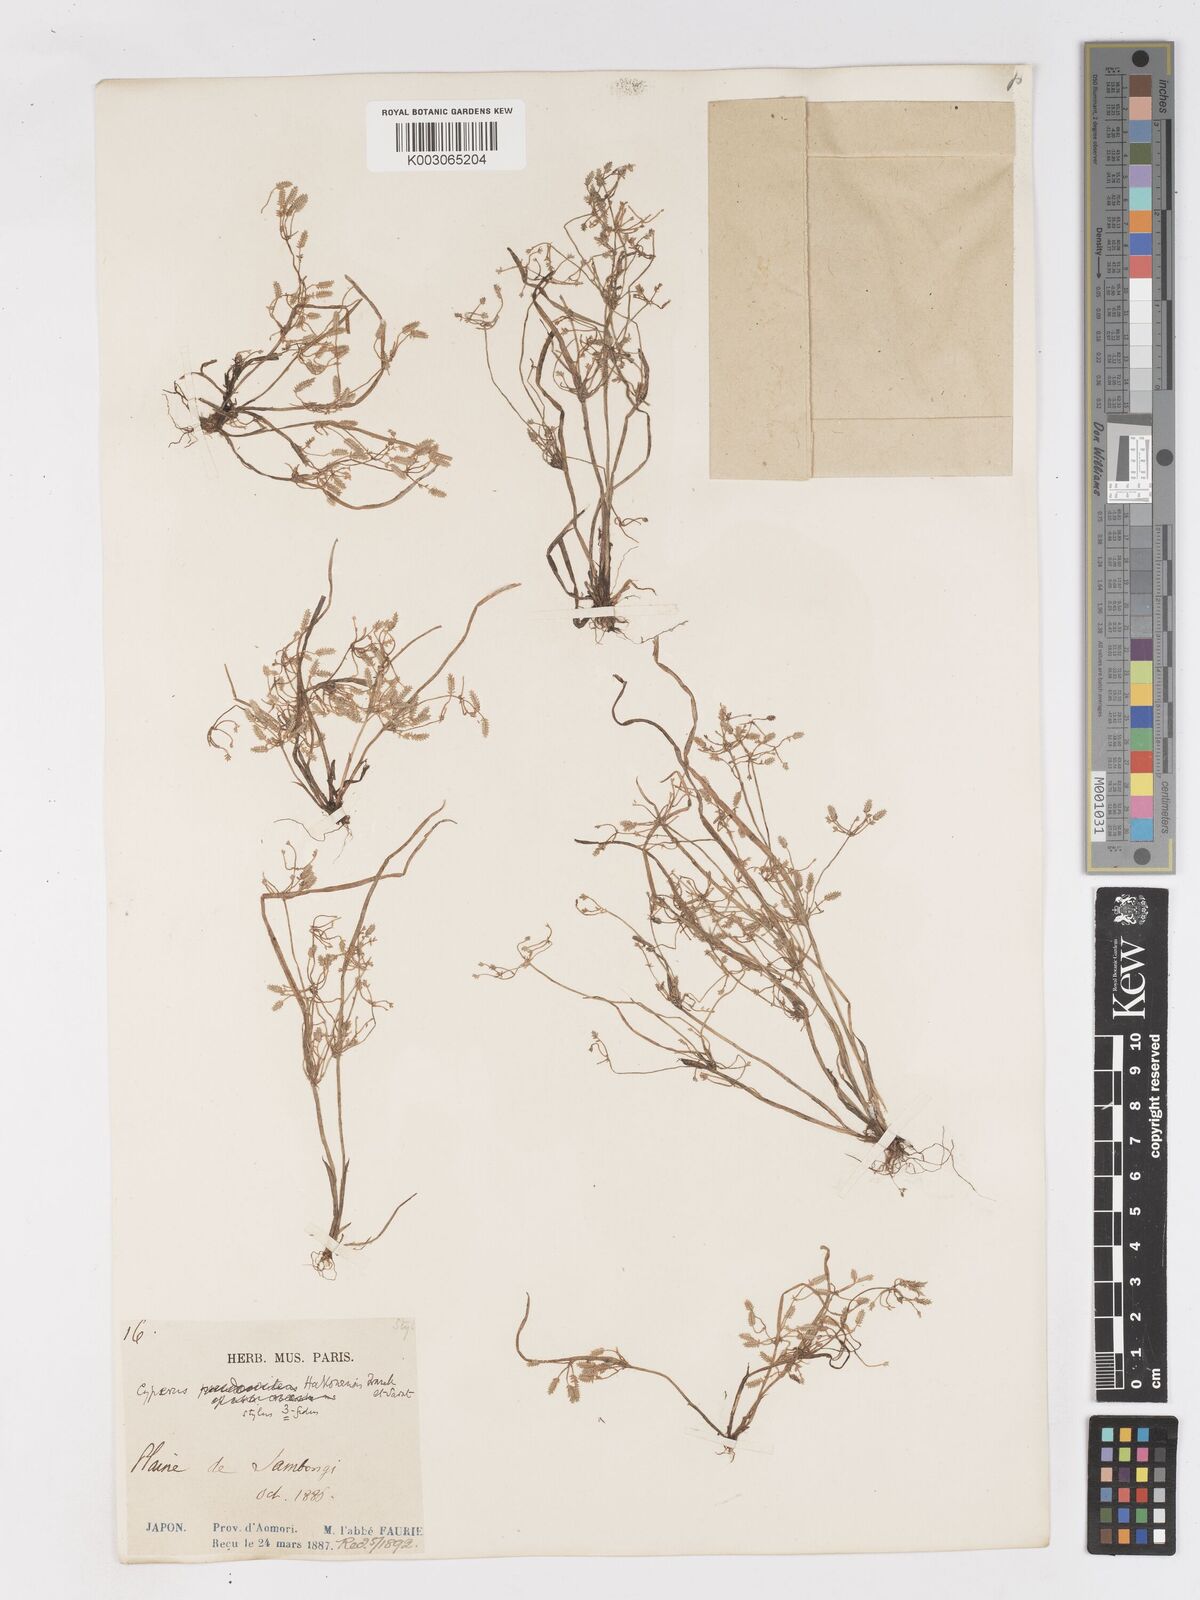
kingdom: Plantae
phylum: Tracheophyta
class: Liliopsida
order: Poales
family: Cyperaceae
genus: Cyperus
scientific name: Cyperus flaccidus
